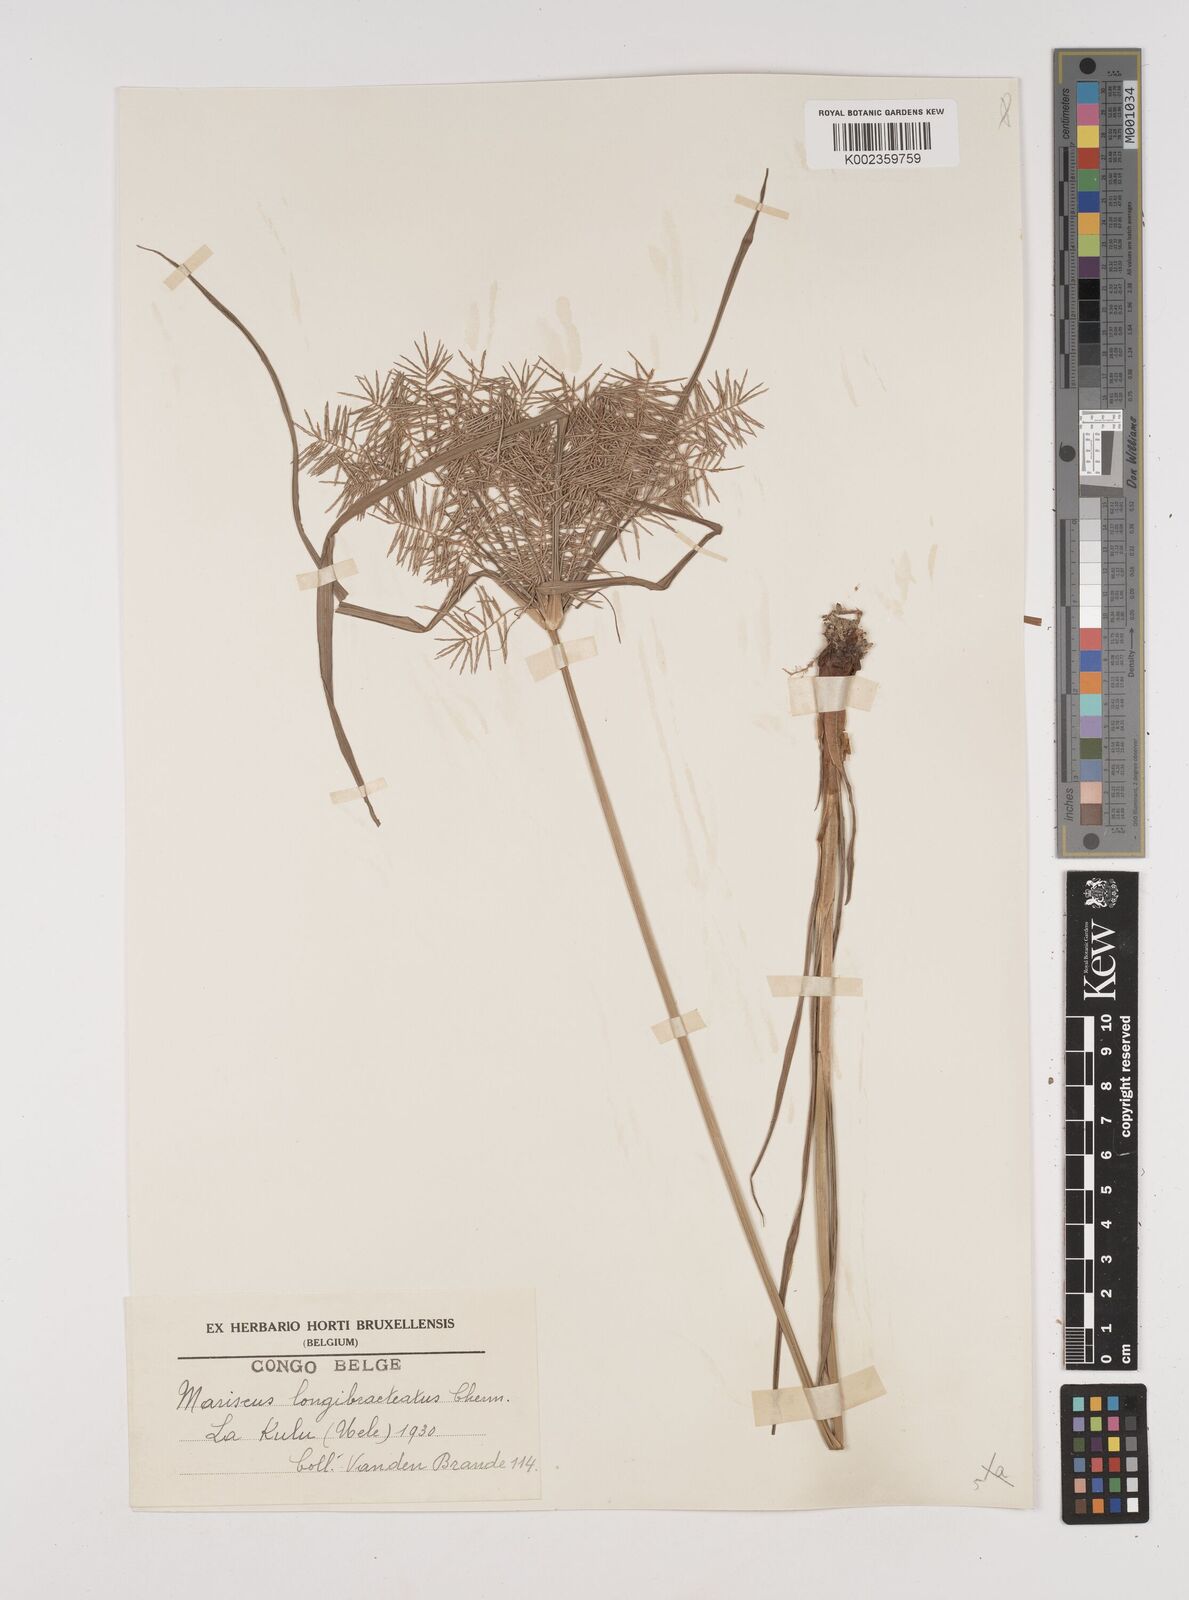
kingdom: Plantae
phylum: Tracheophyta
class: Liliopsida
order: Poales
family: Cyperaceae
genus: Cyperus
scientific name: Cyperus distans
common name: Slender cyperus
